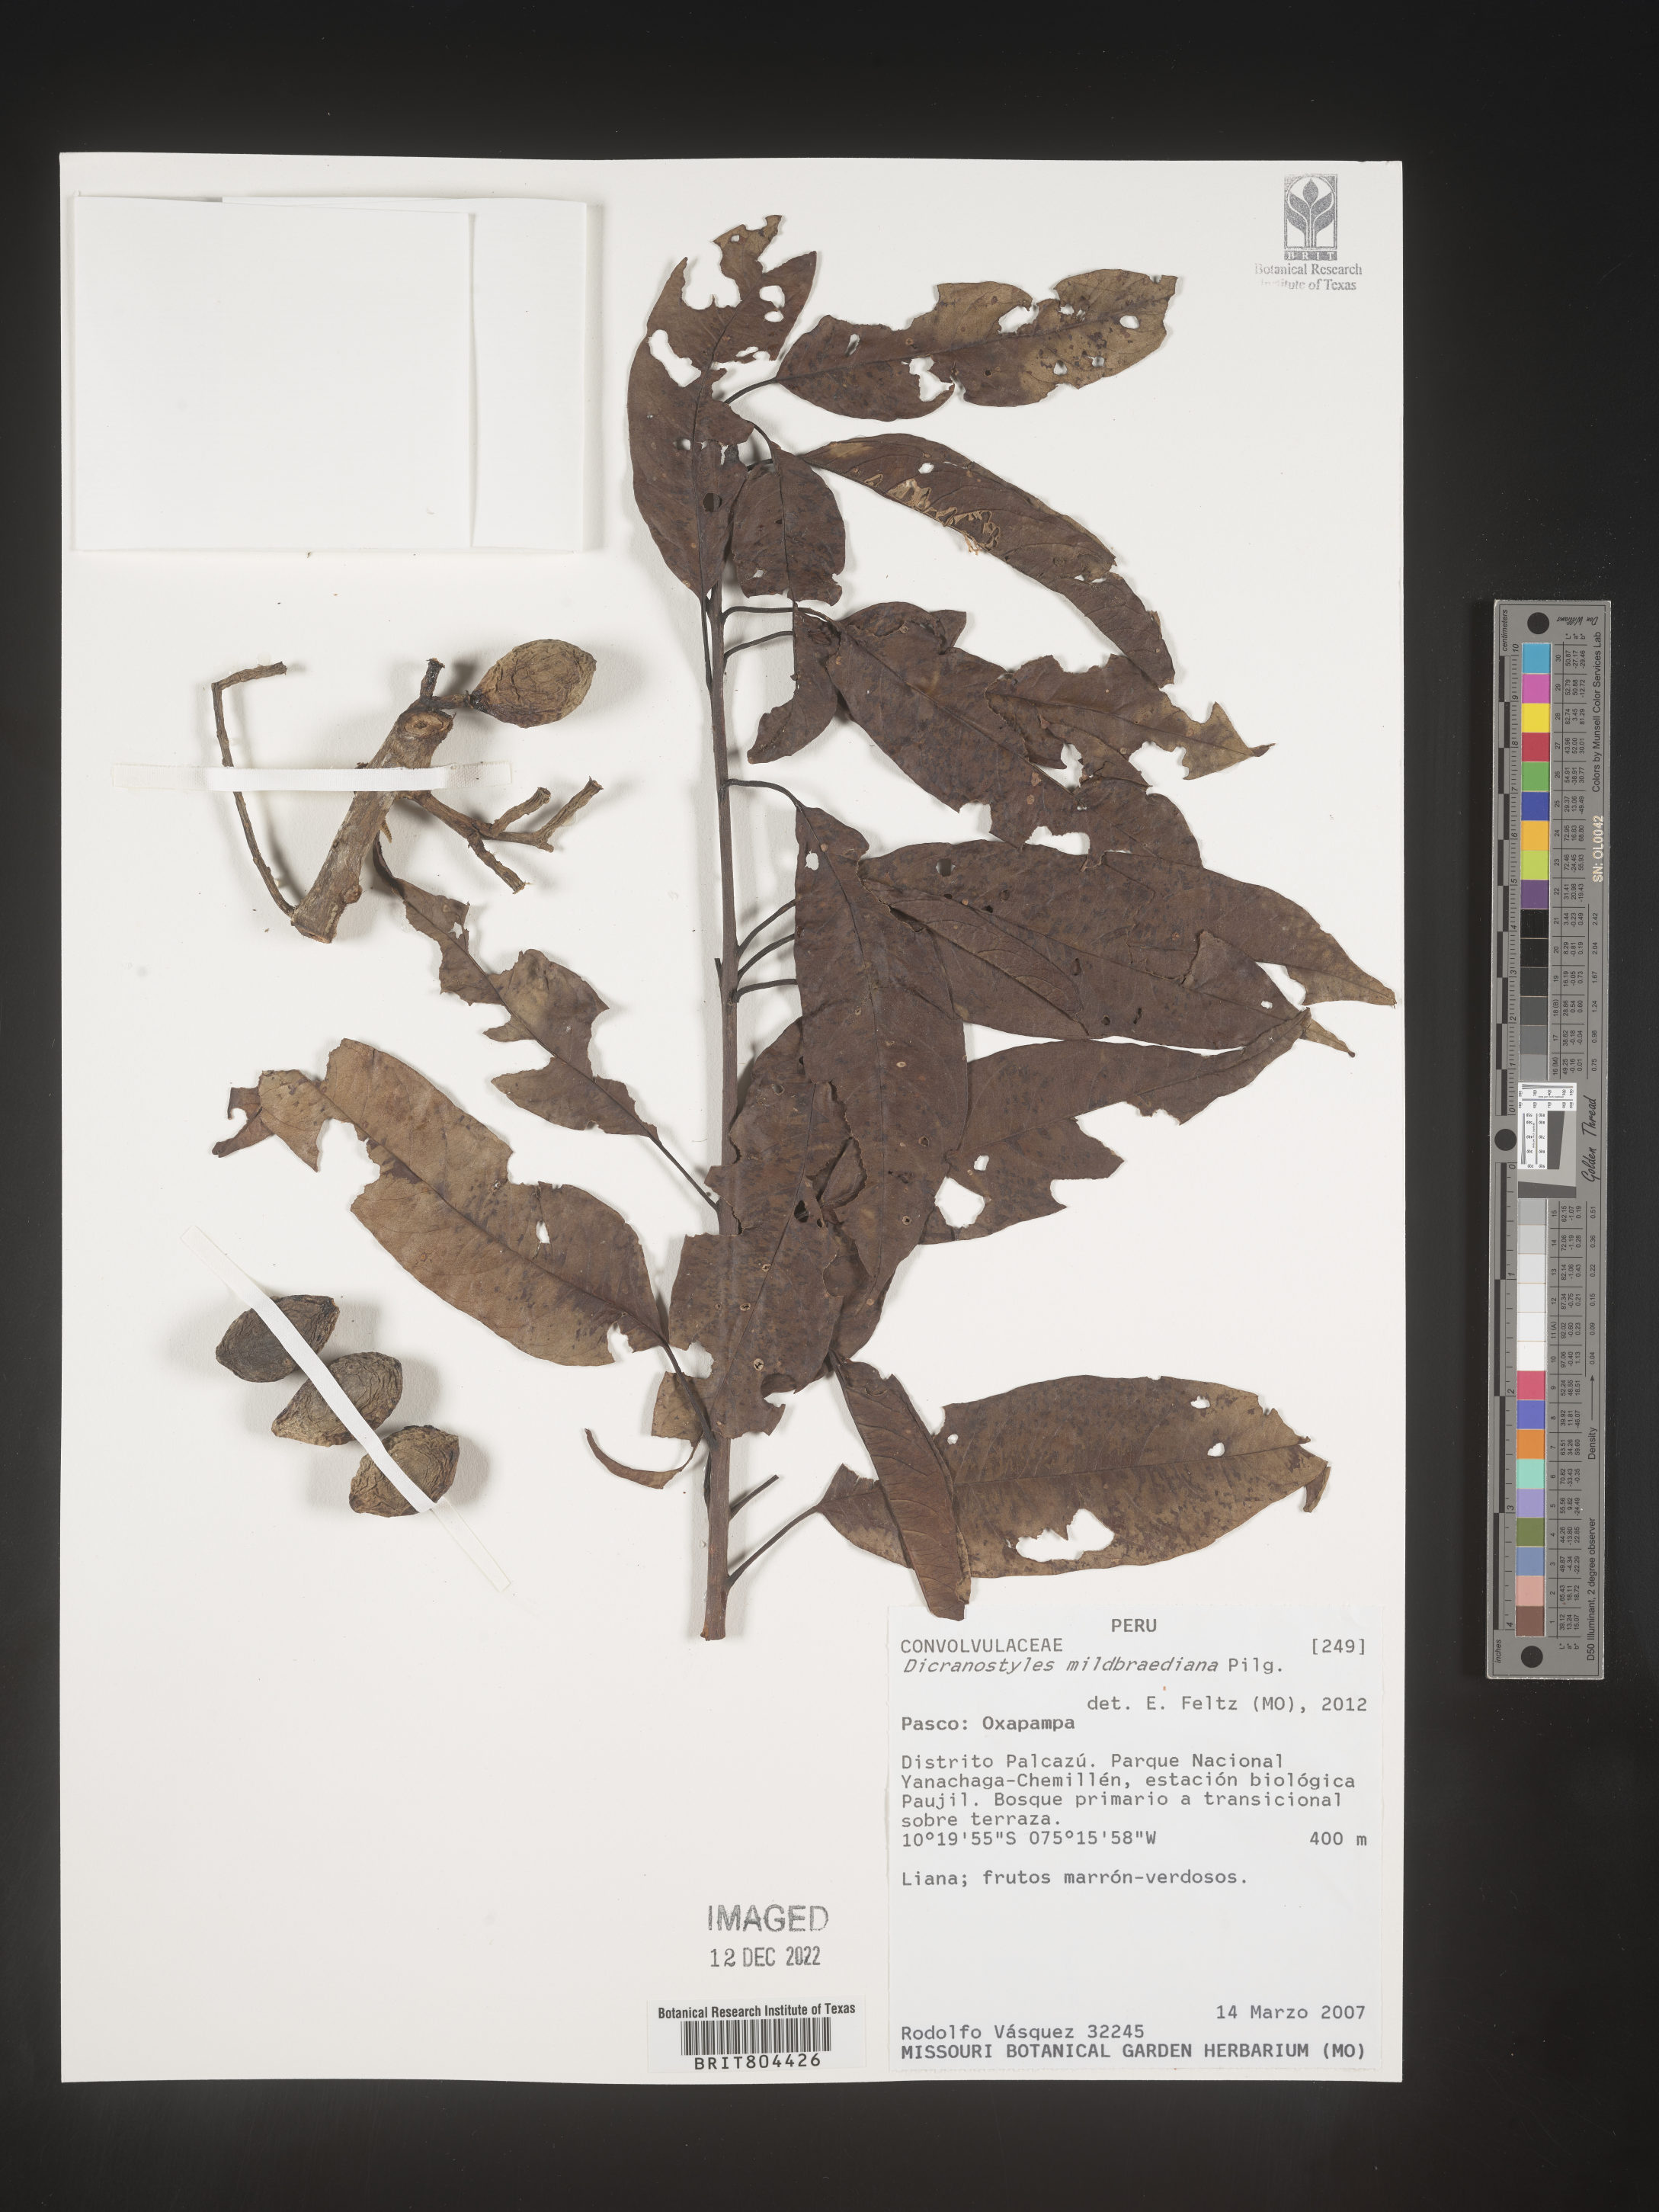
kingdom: Plantae
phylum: Tracheophyta
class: Magnoliopsida
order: Solanales
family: Convolvulaceae
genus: Dicranostyles
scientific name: Dicranostyles
